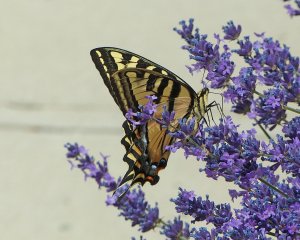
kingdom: Animalia
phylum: Arthropoda
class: Insecta
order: Lepidoptera
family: Papilionidae
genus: Pterourus
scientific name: Pterourus rutulus
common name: Western Tiger Swallowtail
